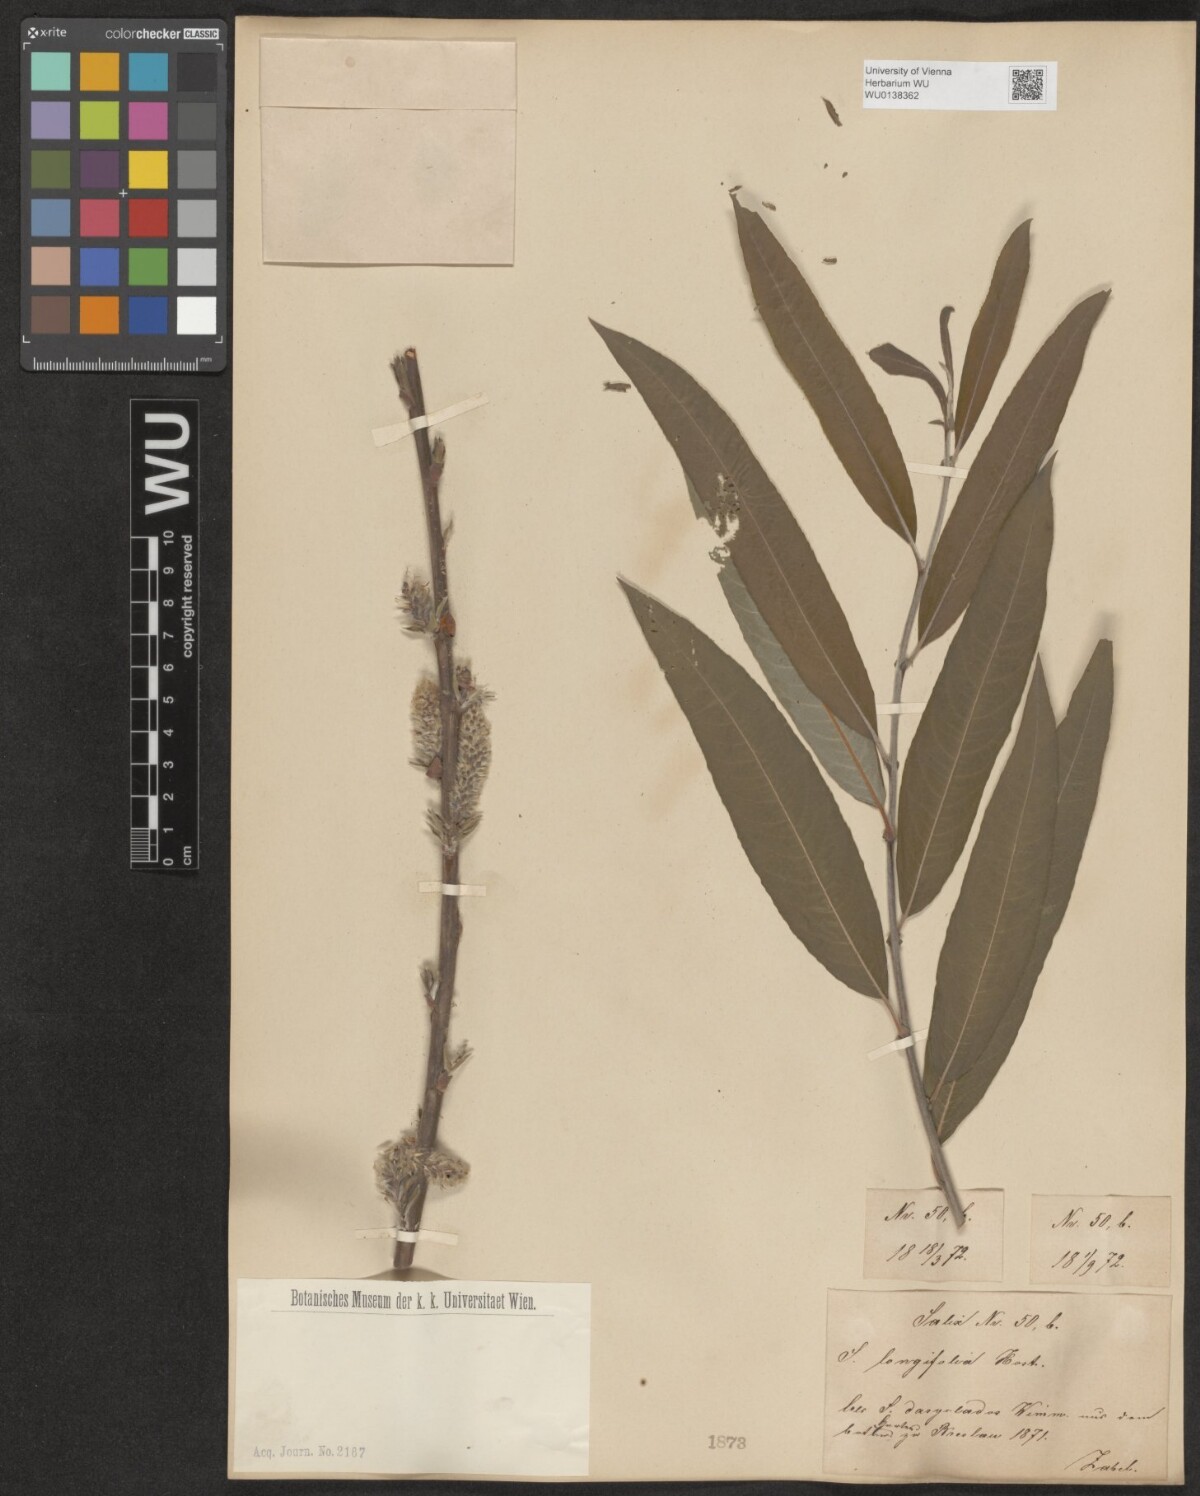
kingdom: Plantae
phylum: Tracheophyta
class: Magnoliopsida
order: Malpighiales
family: Salicaceae
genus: Salix
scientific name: Salix interior
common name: Sandbar willow
